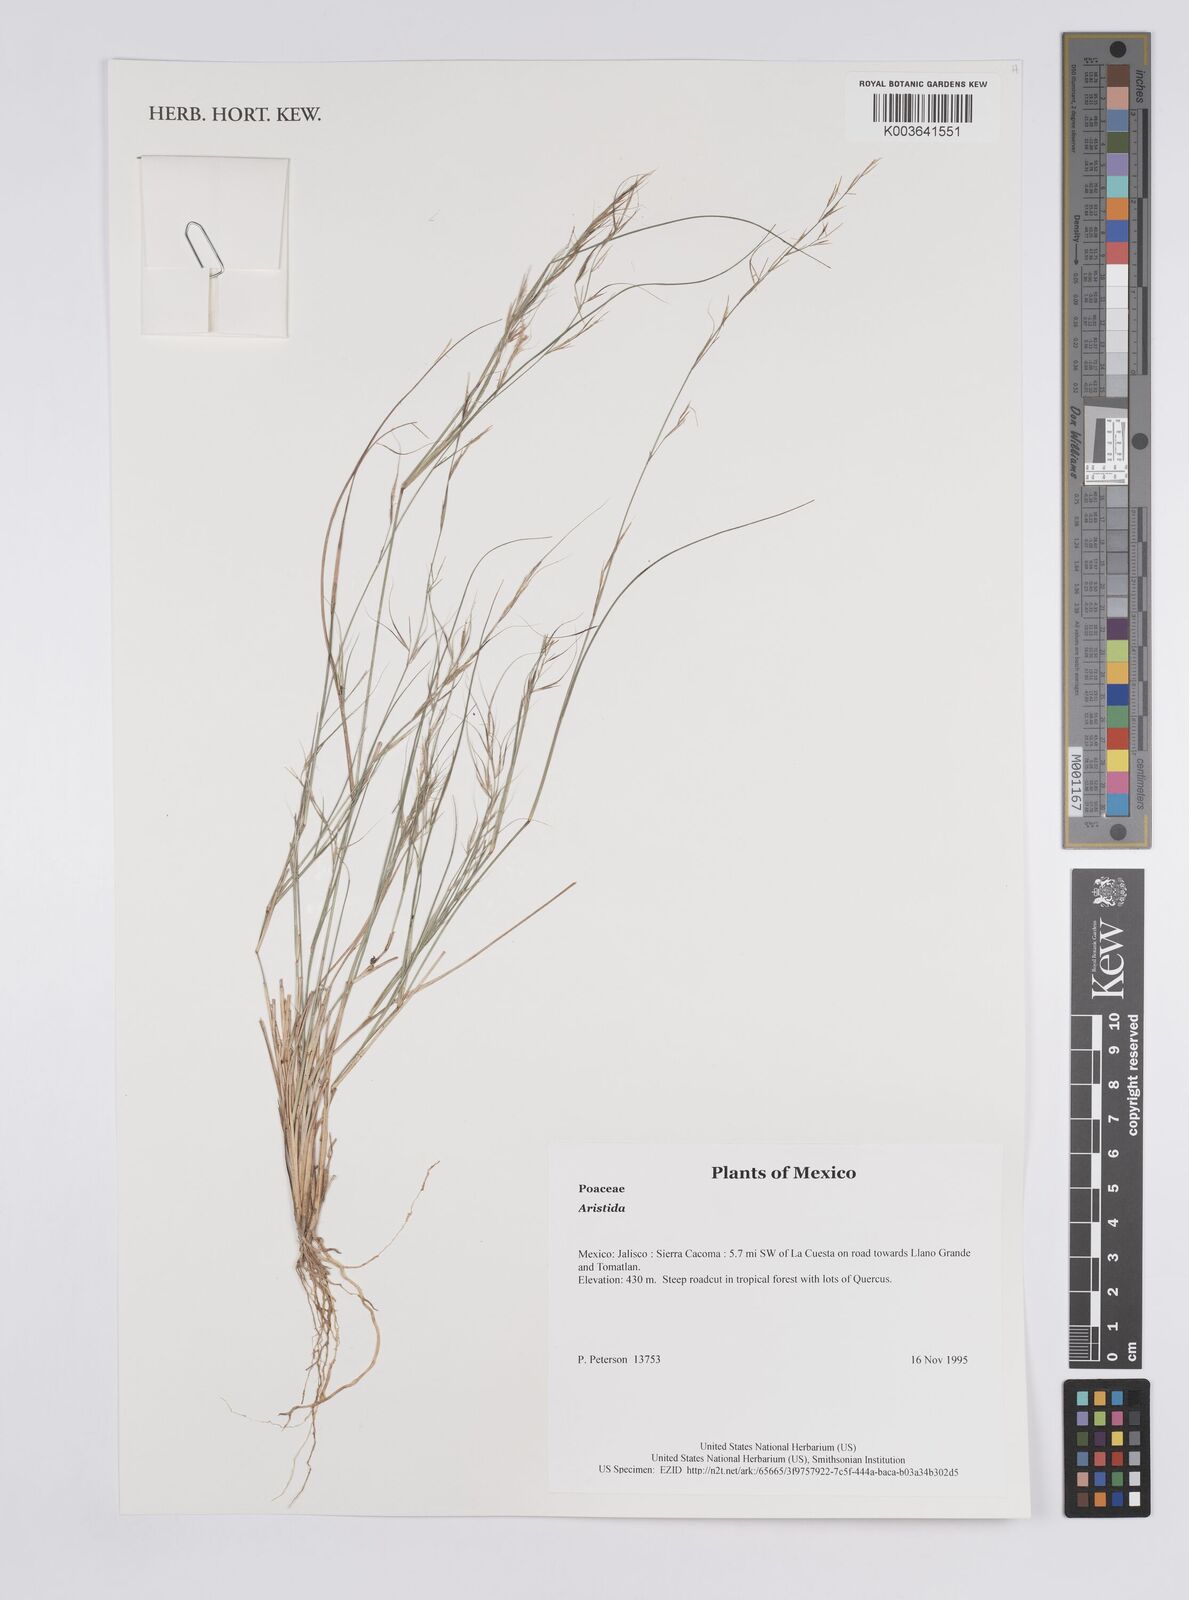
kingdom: Plantae
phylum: Tracheophyta
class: Liliopsida
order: Poales
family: Poaceae
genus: Aristida
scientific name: Aristida
